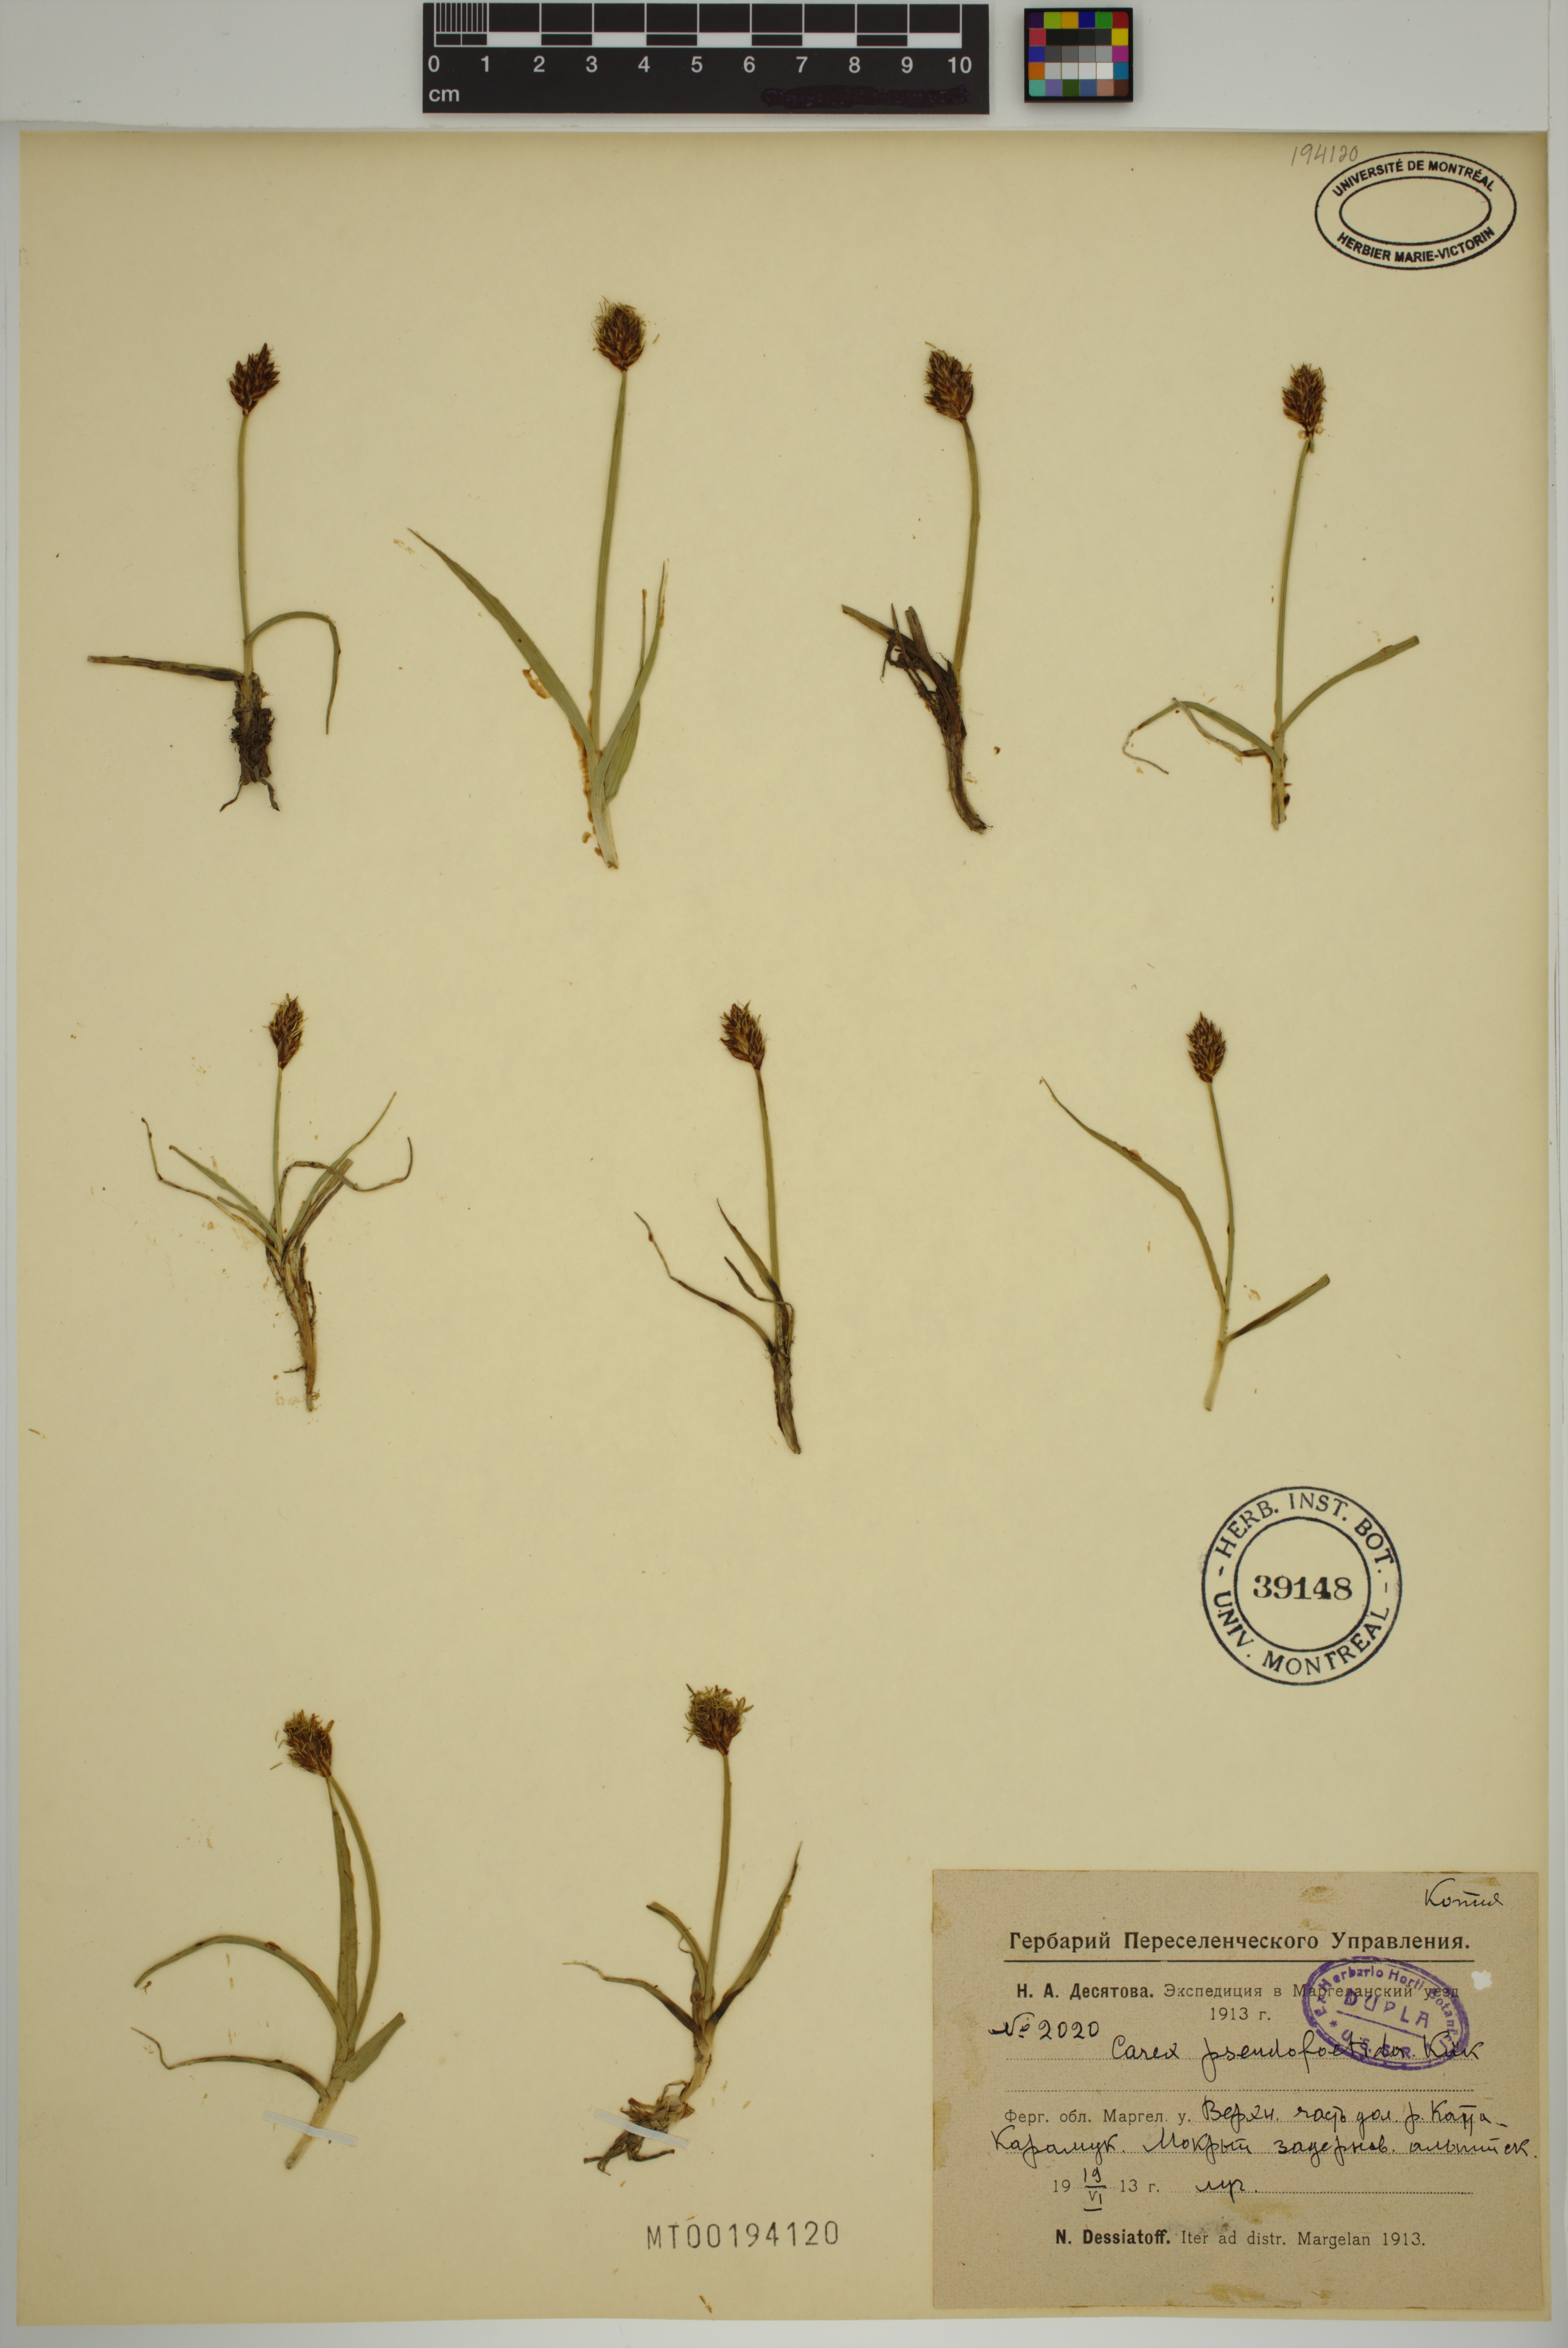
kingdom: Plantae
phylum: Tracheophyta
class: Liliopsida
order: Poales
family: Cyperaceae
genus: Carex
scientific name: Carex pseudofoetida
